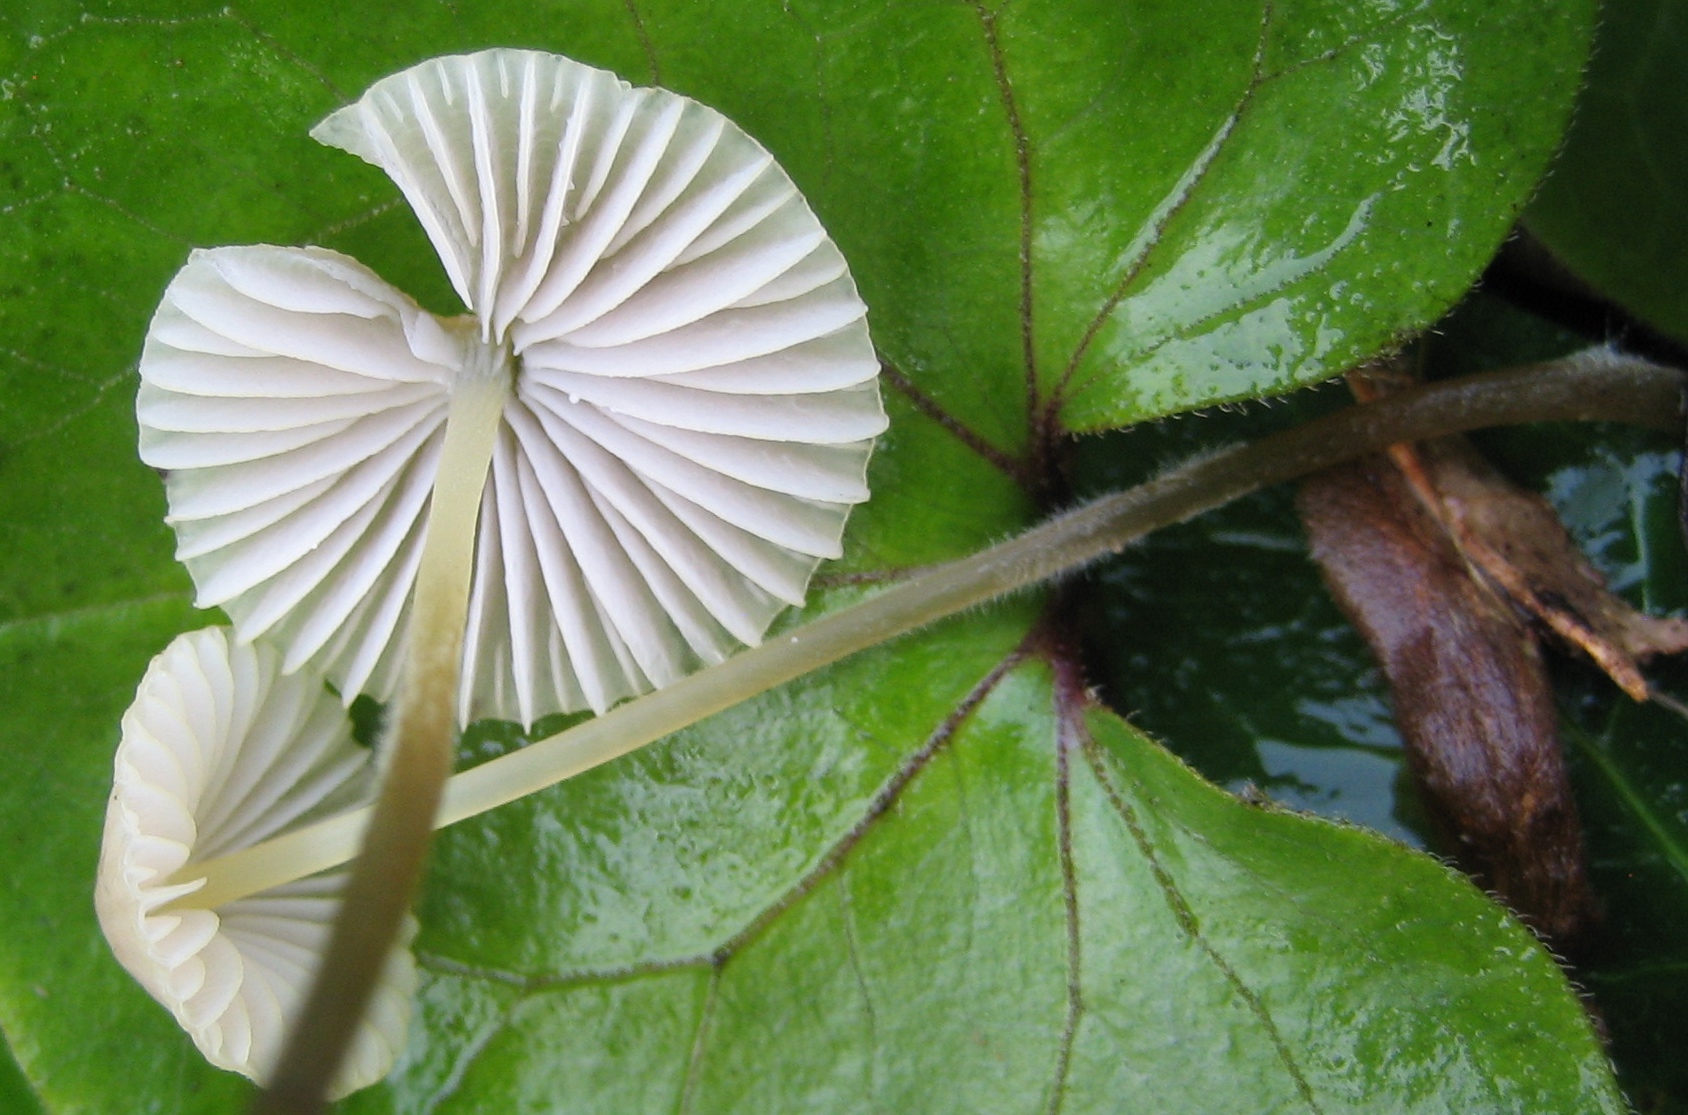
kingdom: Fungi
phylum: Basidiomycota
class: Agaricomycetes
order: Agaricales
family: Mycenaceae
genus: Mycena
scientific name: Mycena
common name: huesvamp
